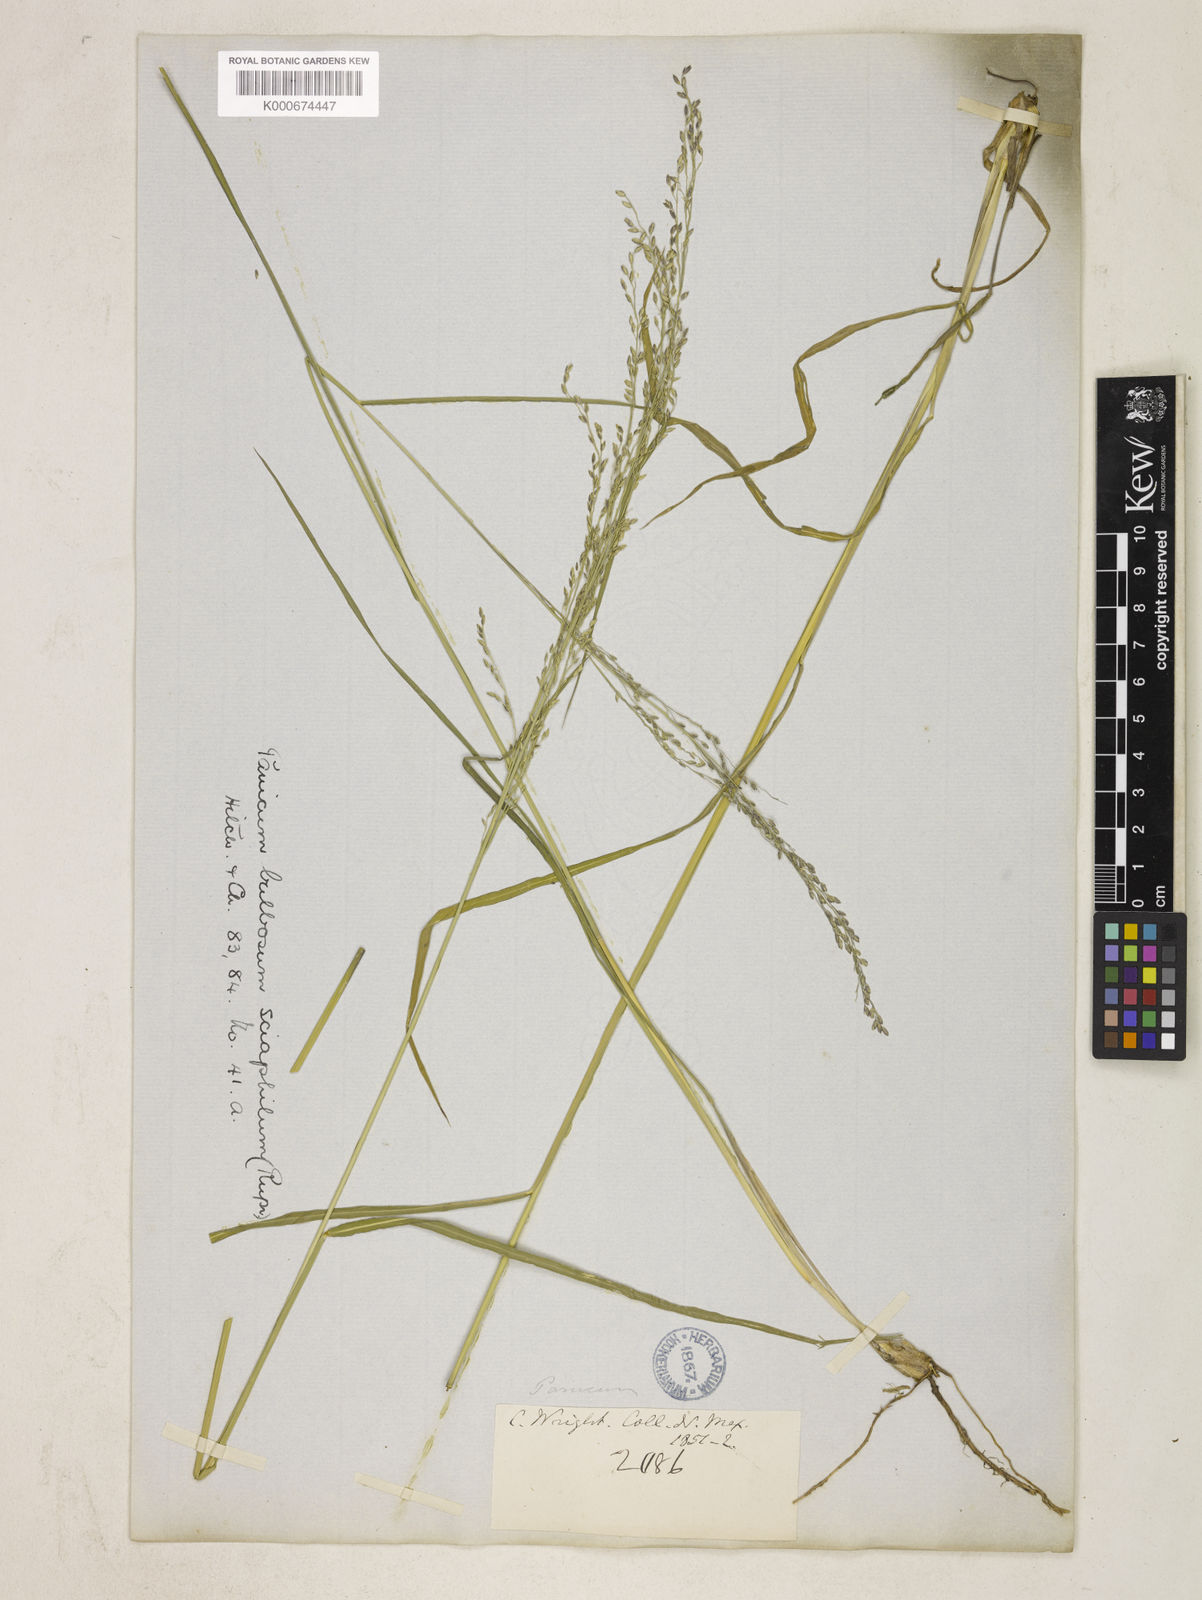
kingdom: Plantae
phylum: Tracheophyta
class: Liliopsida
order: Poales
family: Poaceae
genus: Zuloagaea
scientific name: Zuloagaea bulbosa
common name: Canyon panic grass
